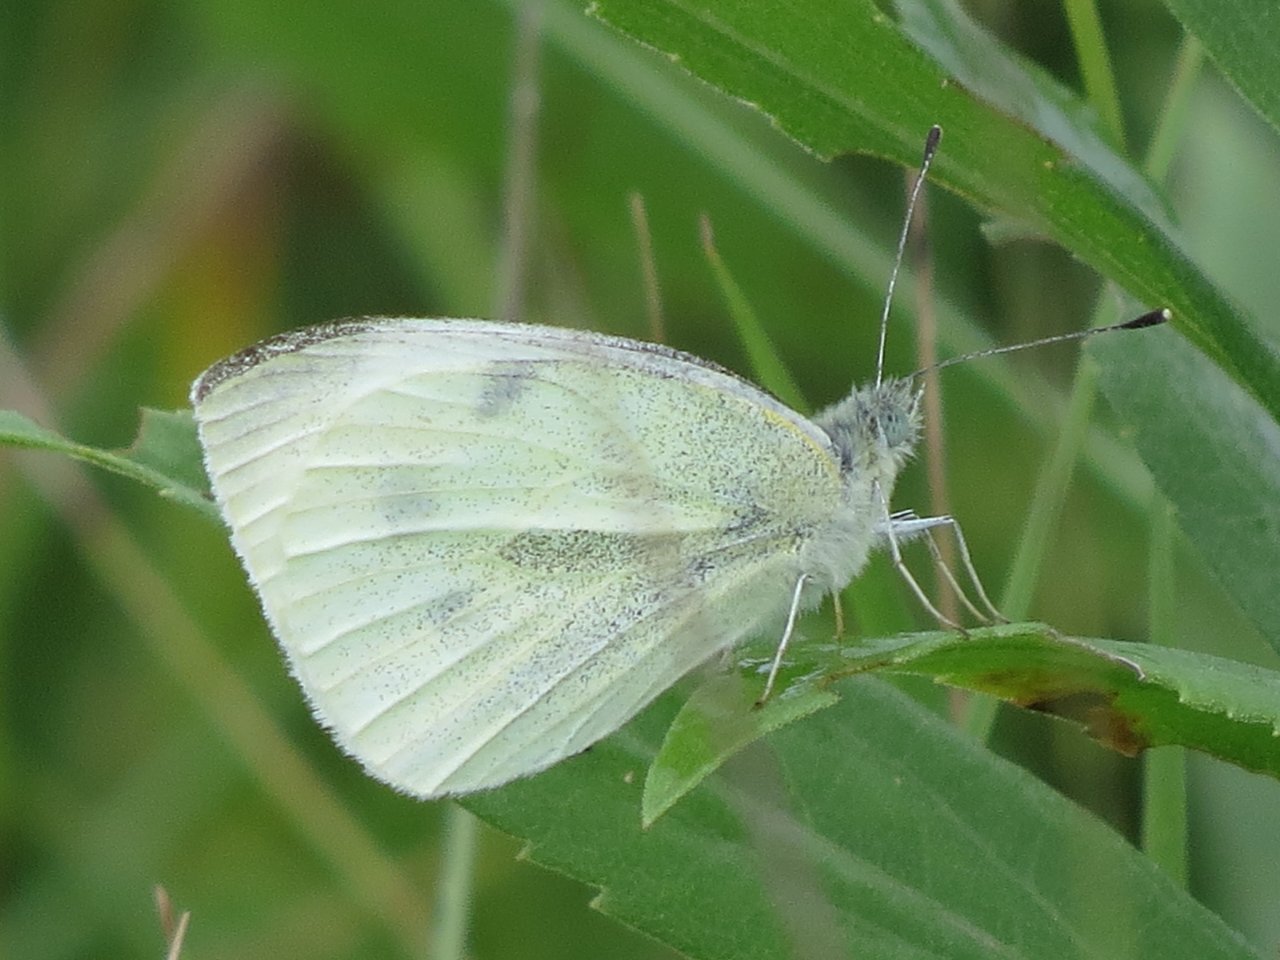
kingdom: Animalia
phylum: Arthropoda
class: Insecta
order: Lepidoptera
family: Pieridae
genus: Pieris
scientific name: Pieris rapae
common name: Cabbage White
